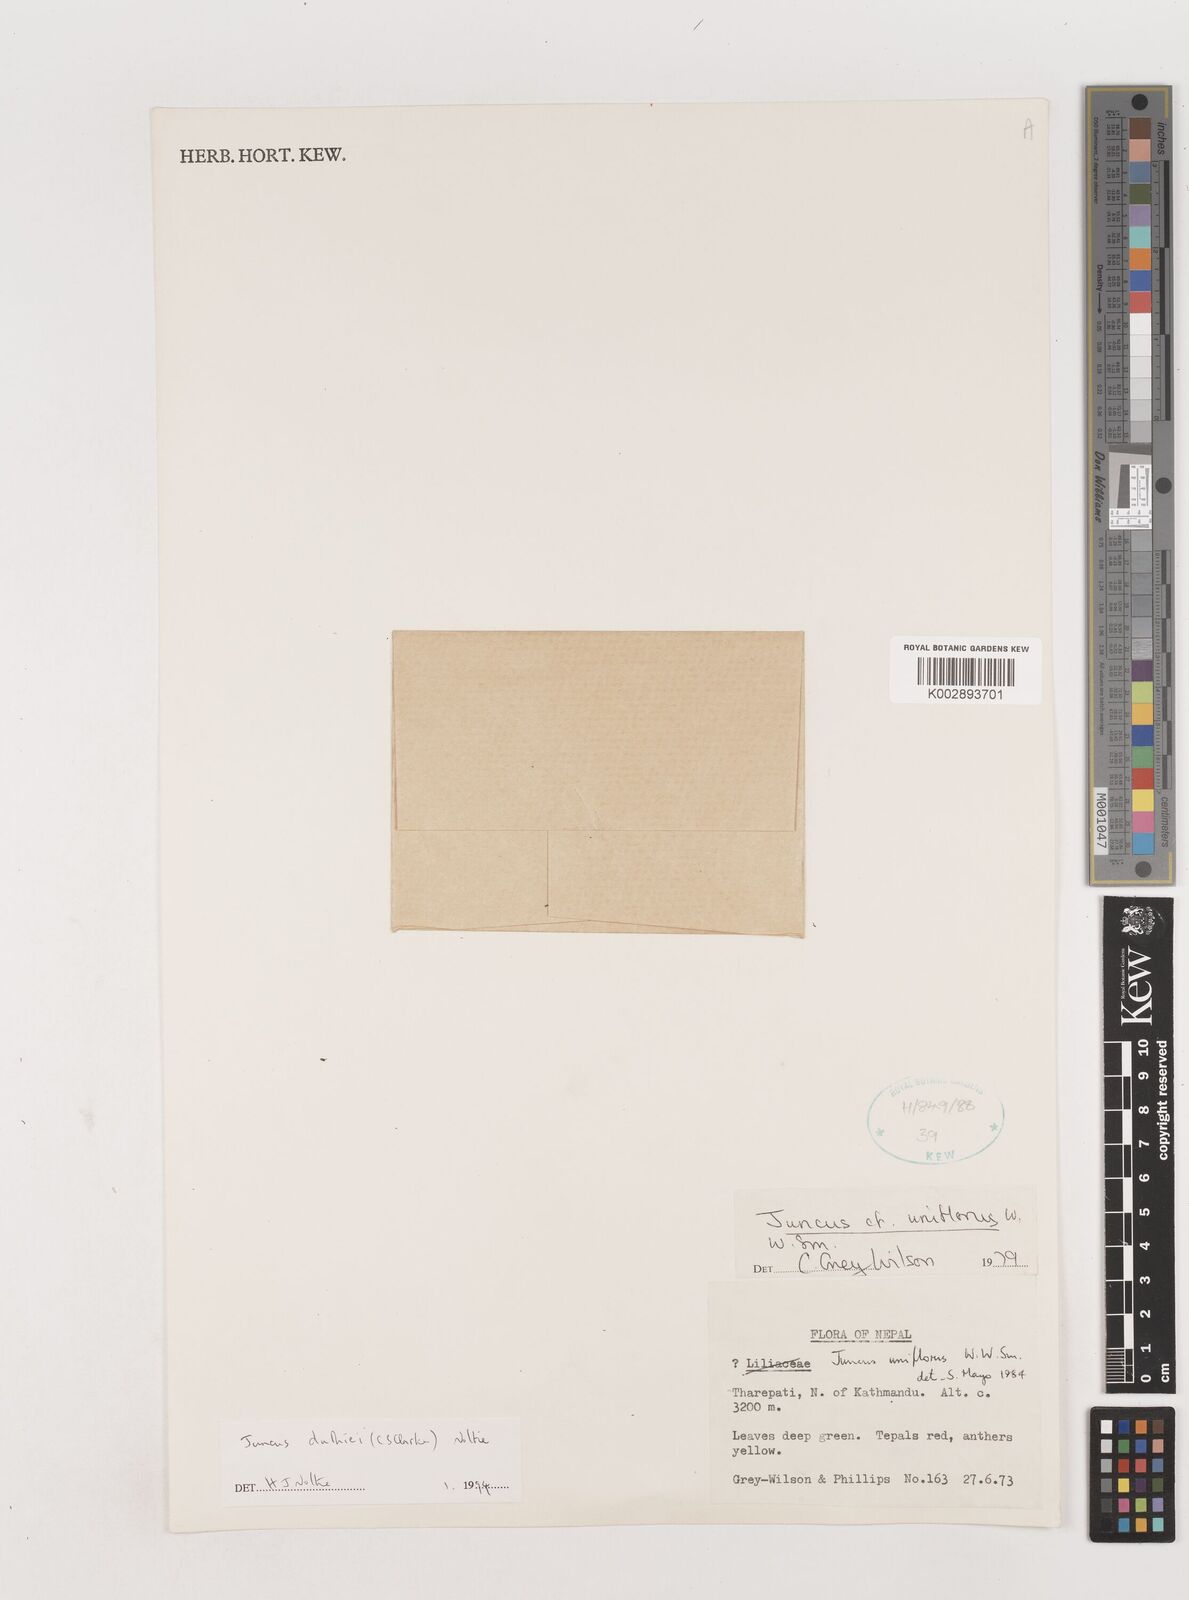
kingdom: Plantae
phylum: Tracheophyta
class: Liliopsida
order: Poales
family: Juncaceae
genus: Juncus
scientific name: Juncus duthiei
